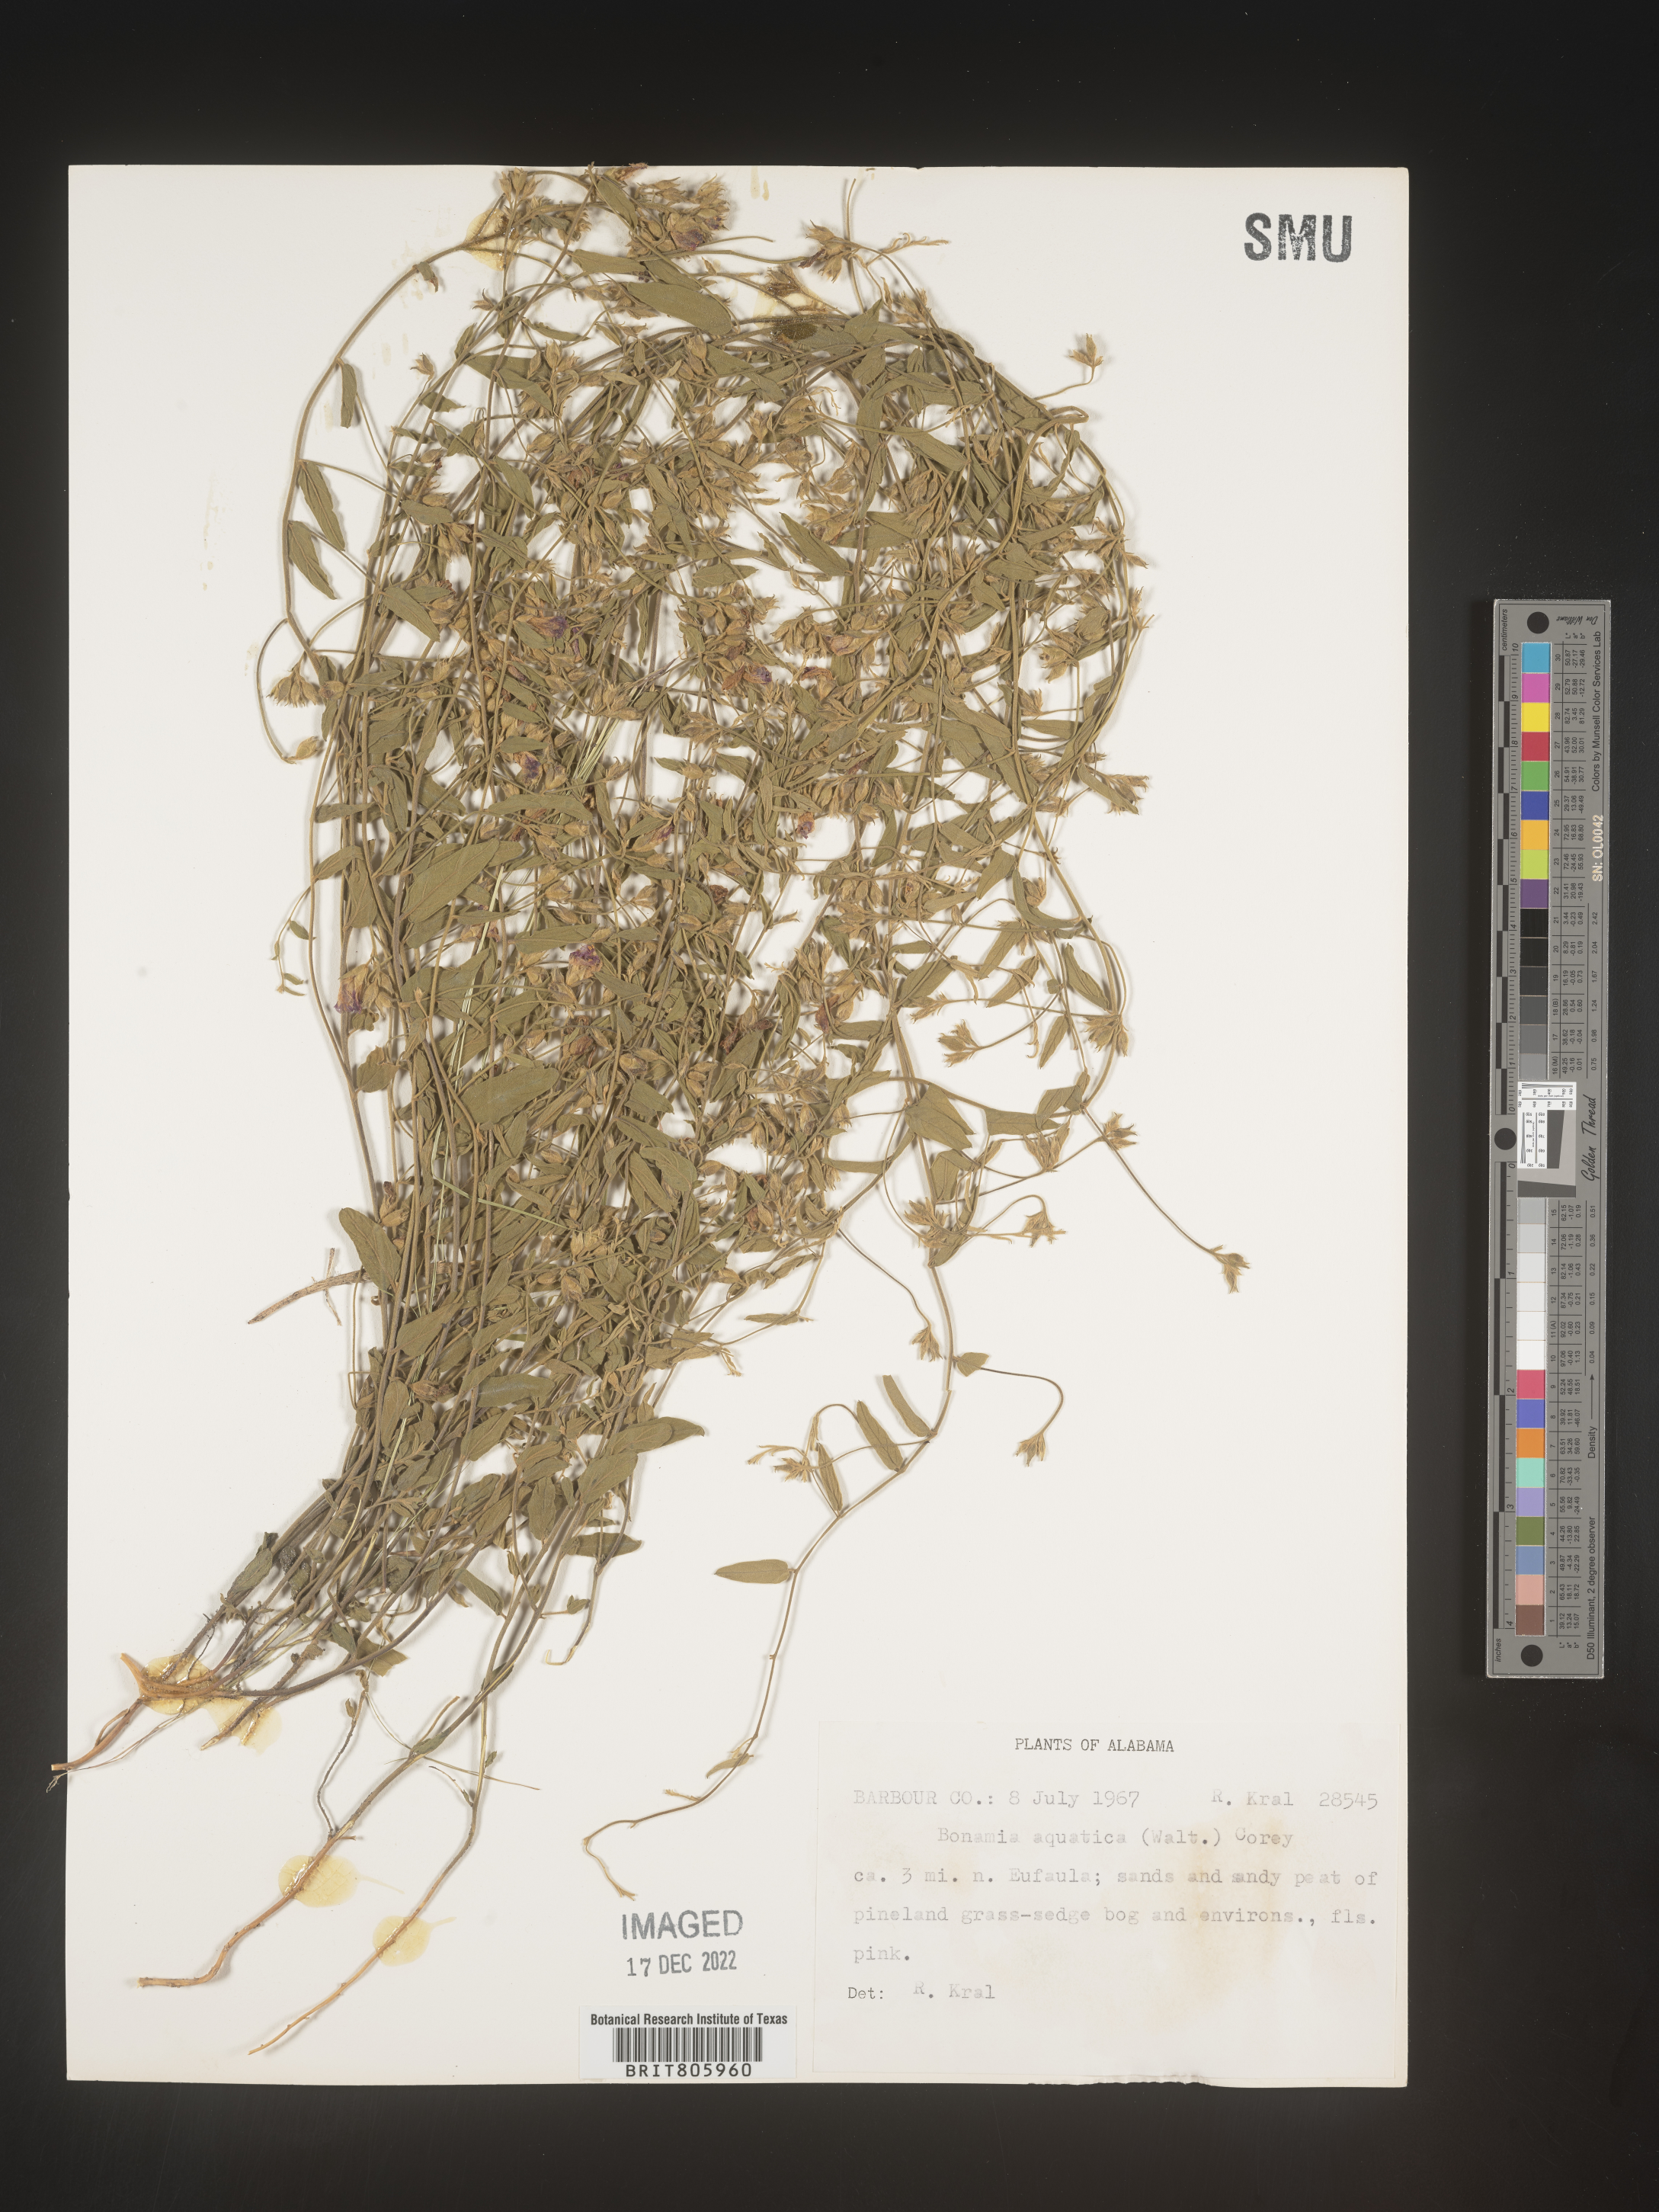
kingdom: Plantae
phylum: Tracheophyta
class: Magnoliopsida
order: Solanales
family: Convolvulaceae
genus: Stylisma
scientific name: Stylisma
